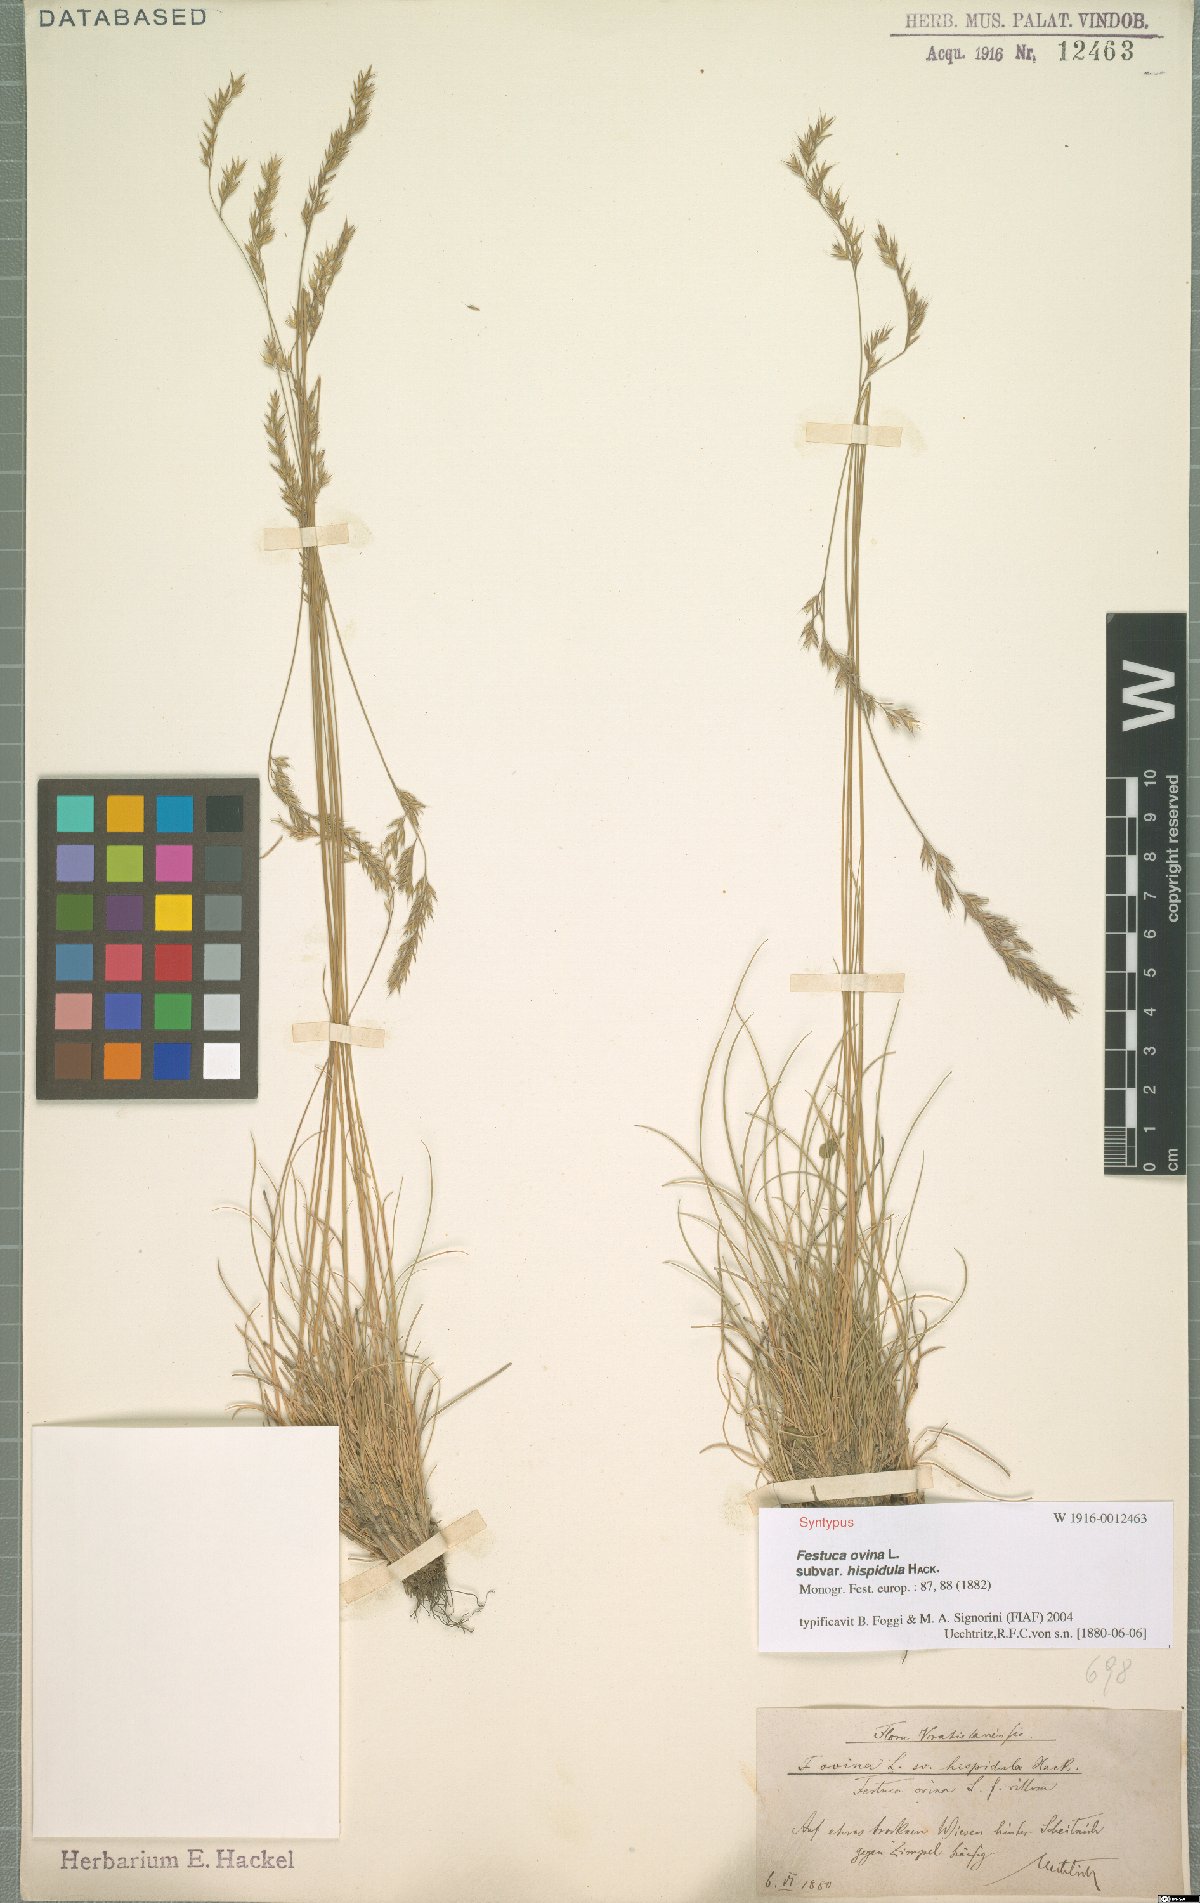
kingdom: Plantae
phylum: Tracheophyta
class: Liliopsida
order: Poales
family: Poaceae
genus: Festuca
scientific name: Festuca
